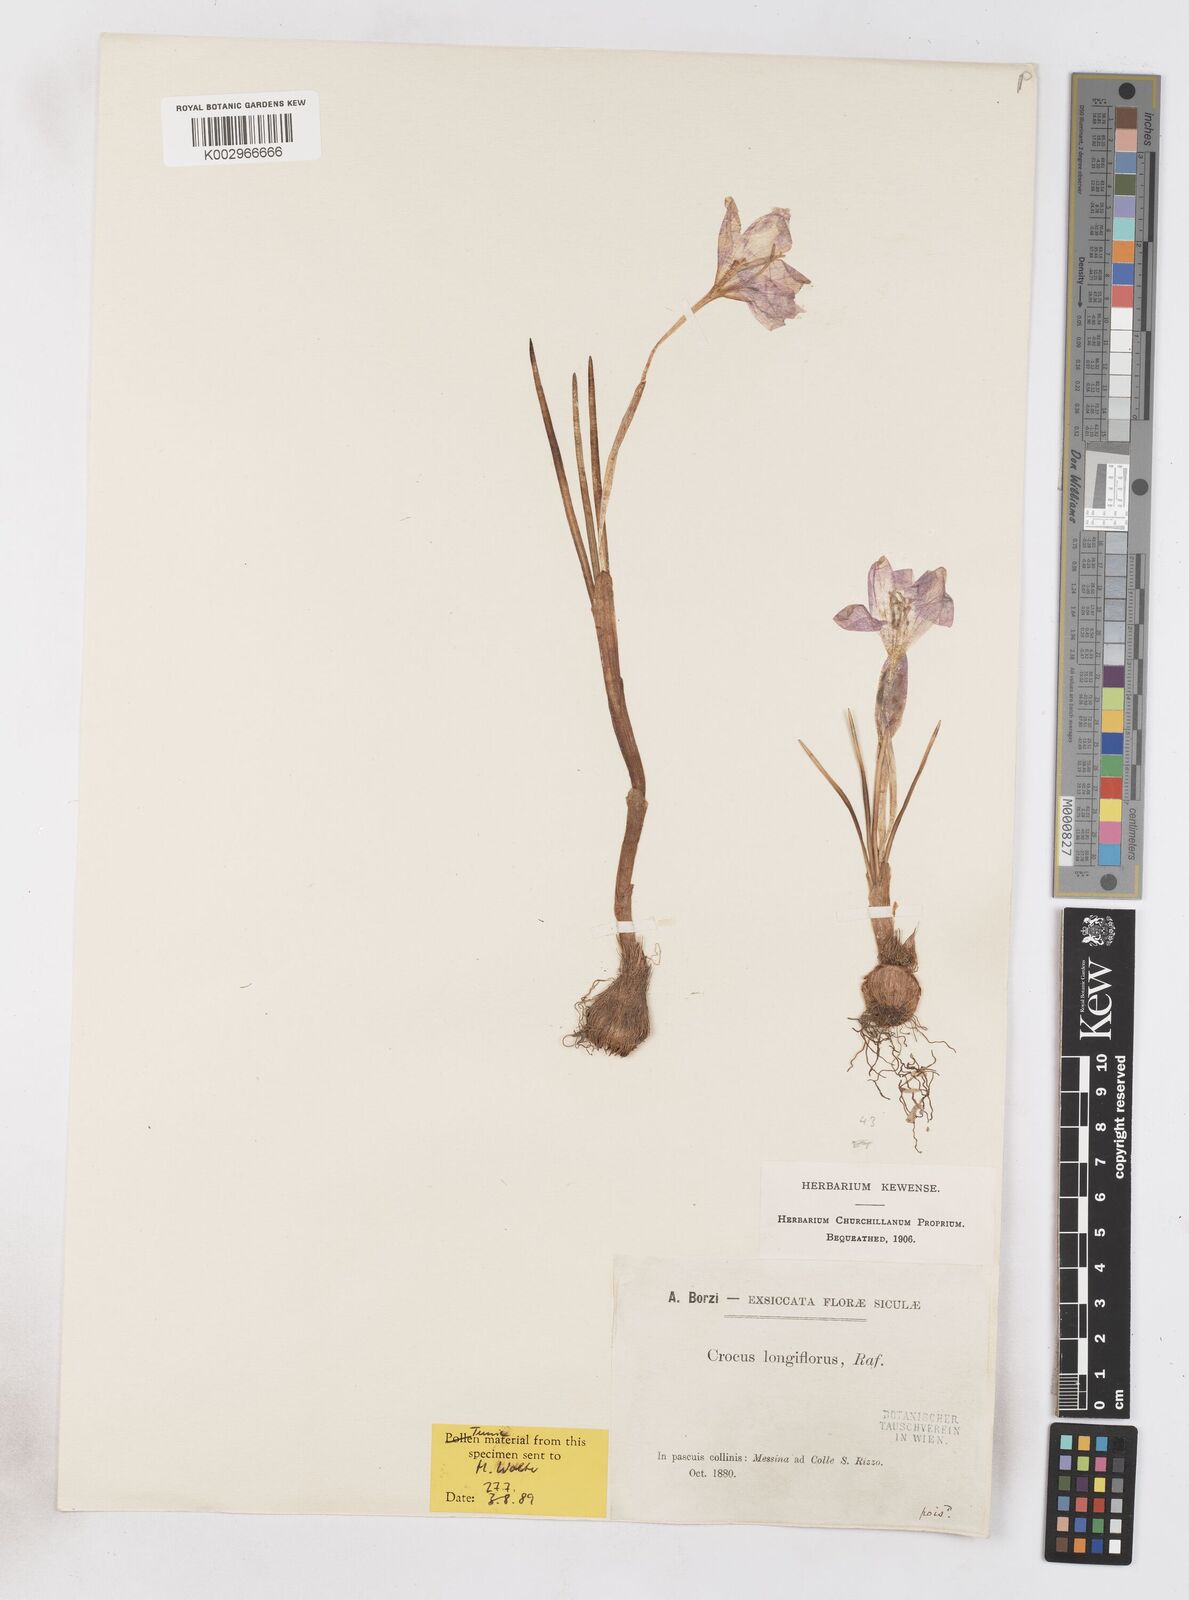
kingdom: Plantae
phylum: Tracheophyta
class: Liliopsida
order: Asparagales
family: Iridaceae
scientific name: Iridaceae
